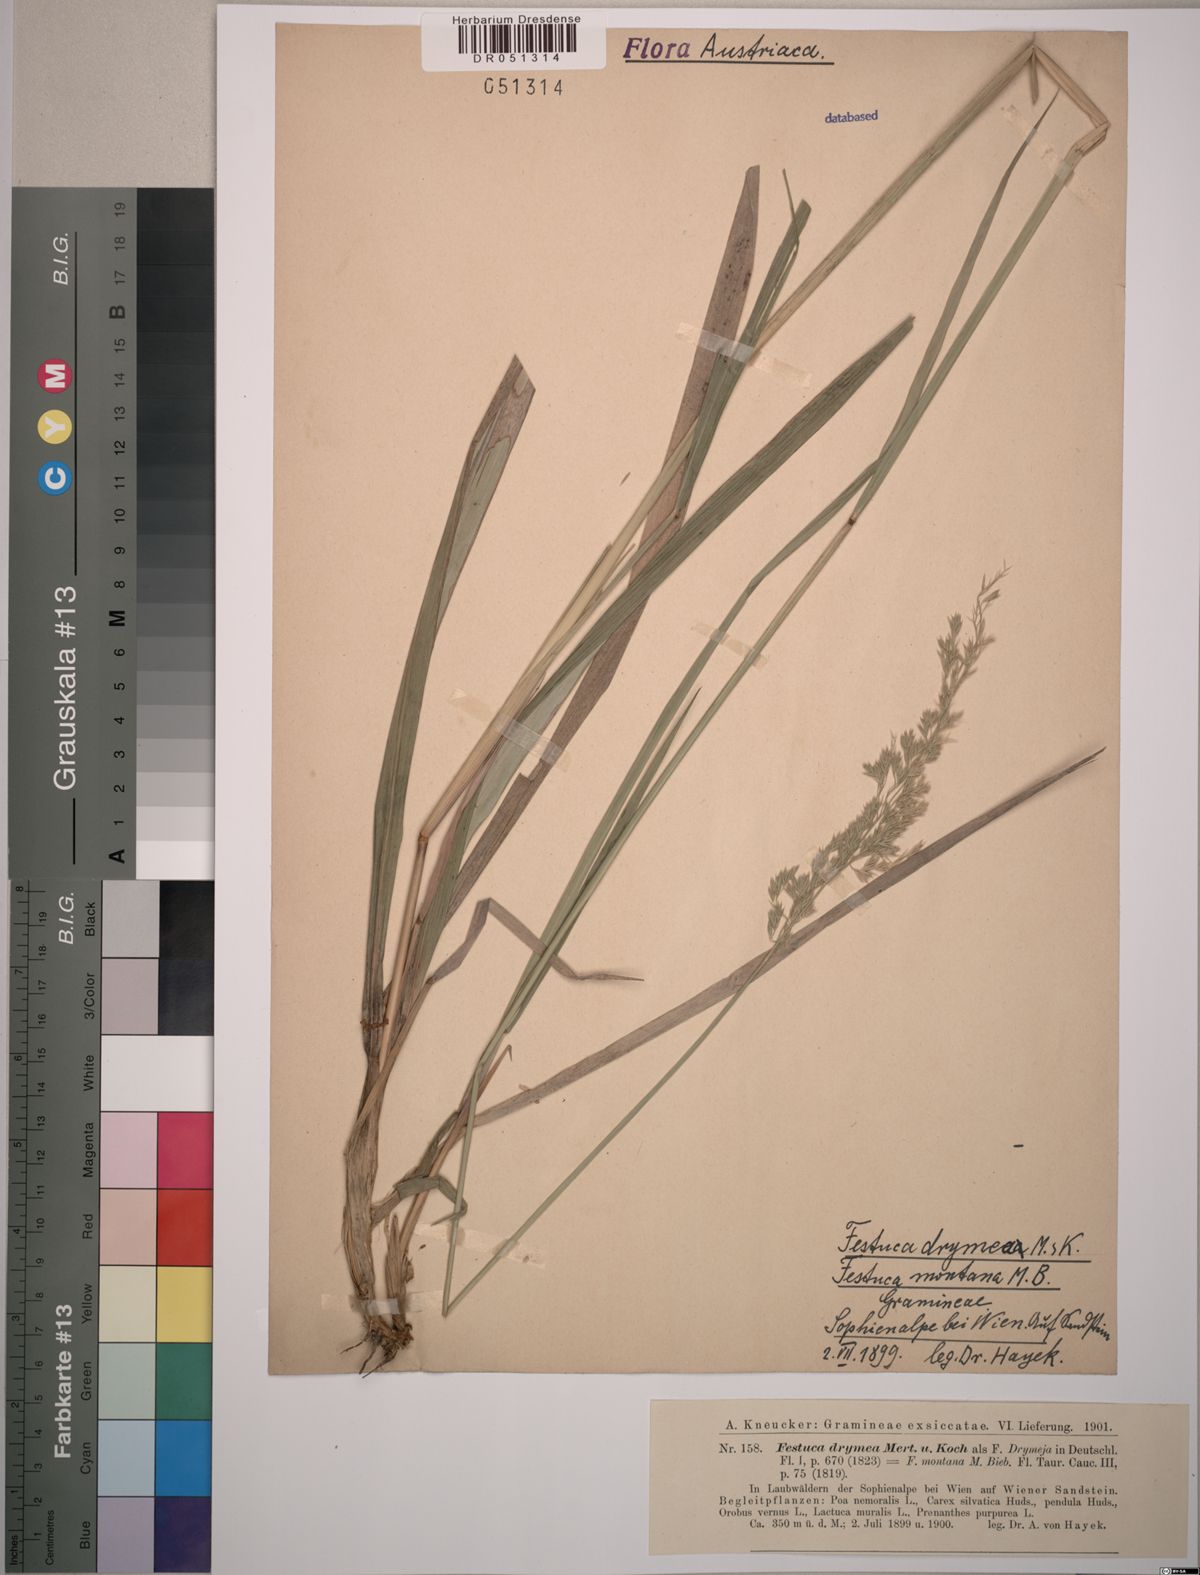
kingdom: Plantae
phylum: Tracheophyta
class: Liliopsida
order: Poales
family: Poaceae
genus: Festuca
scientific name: Festuca drymeja
